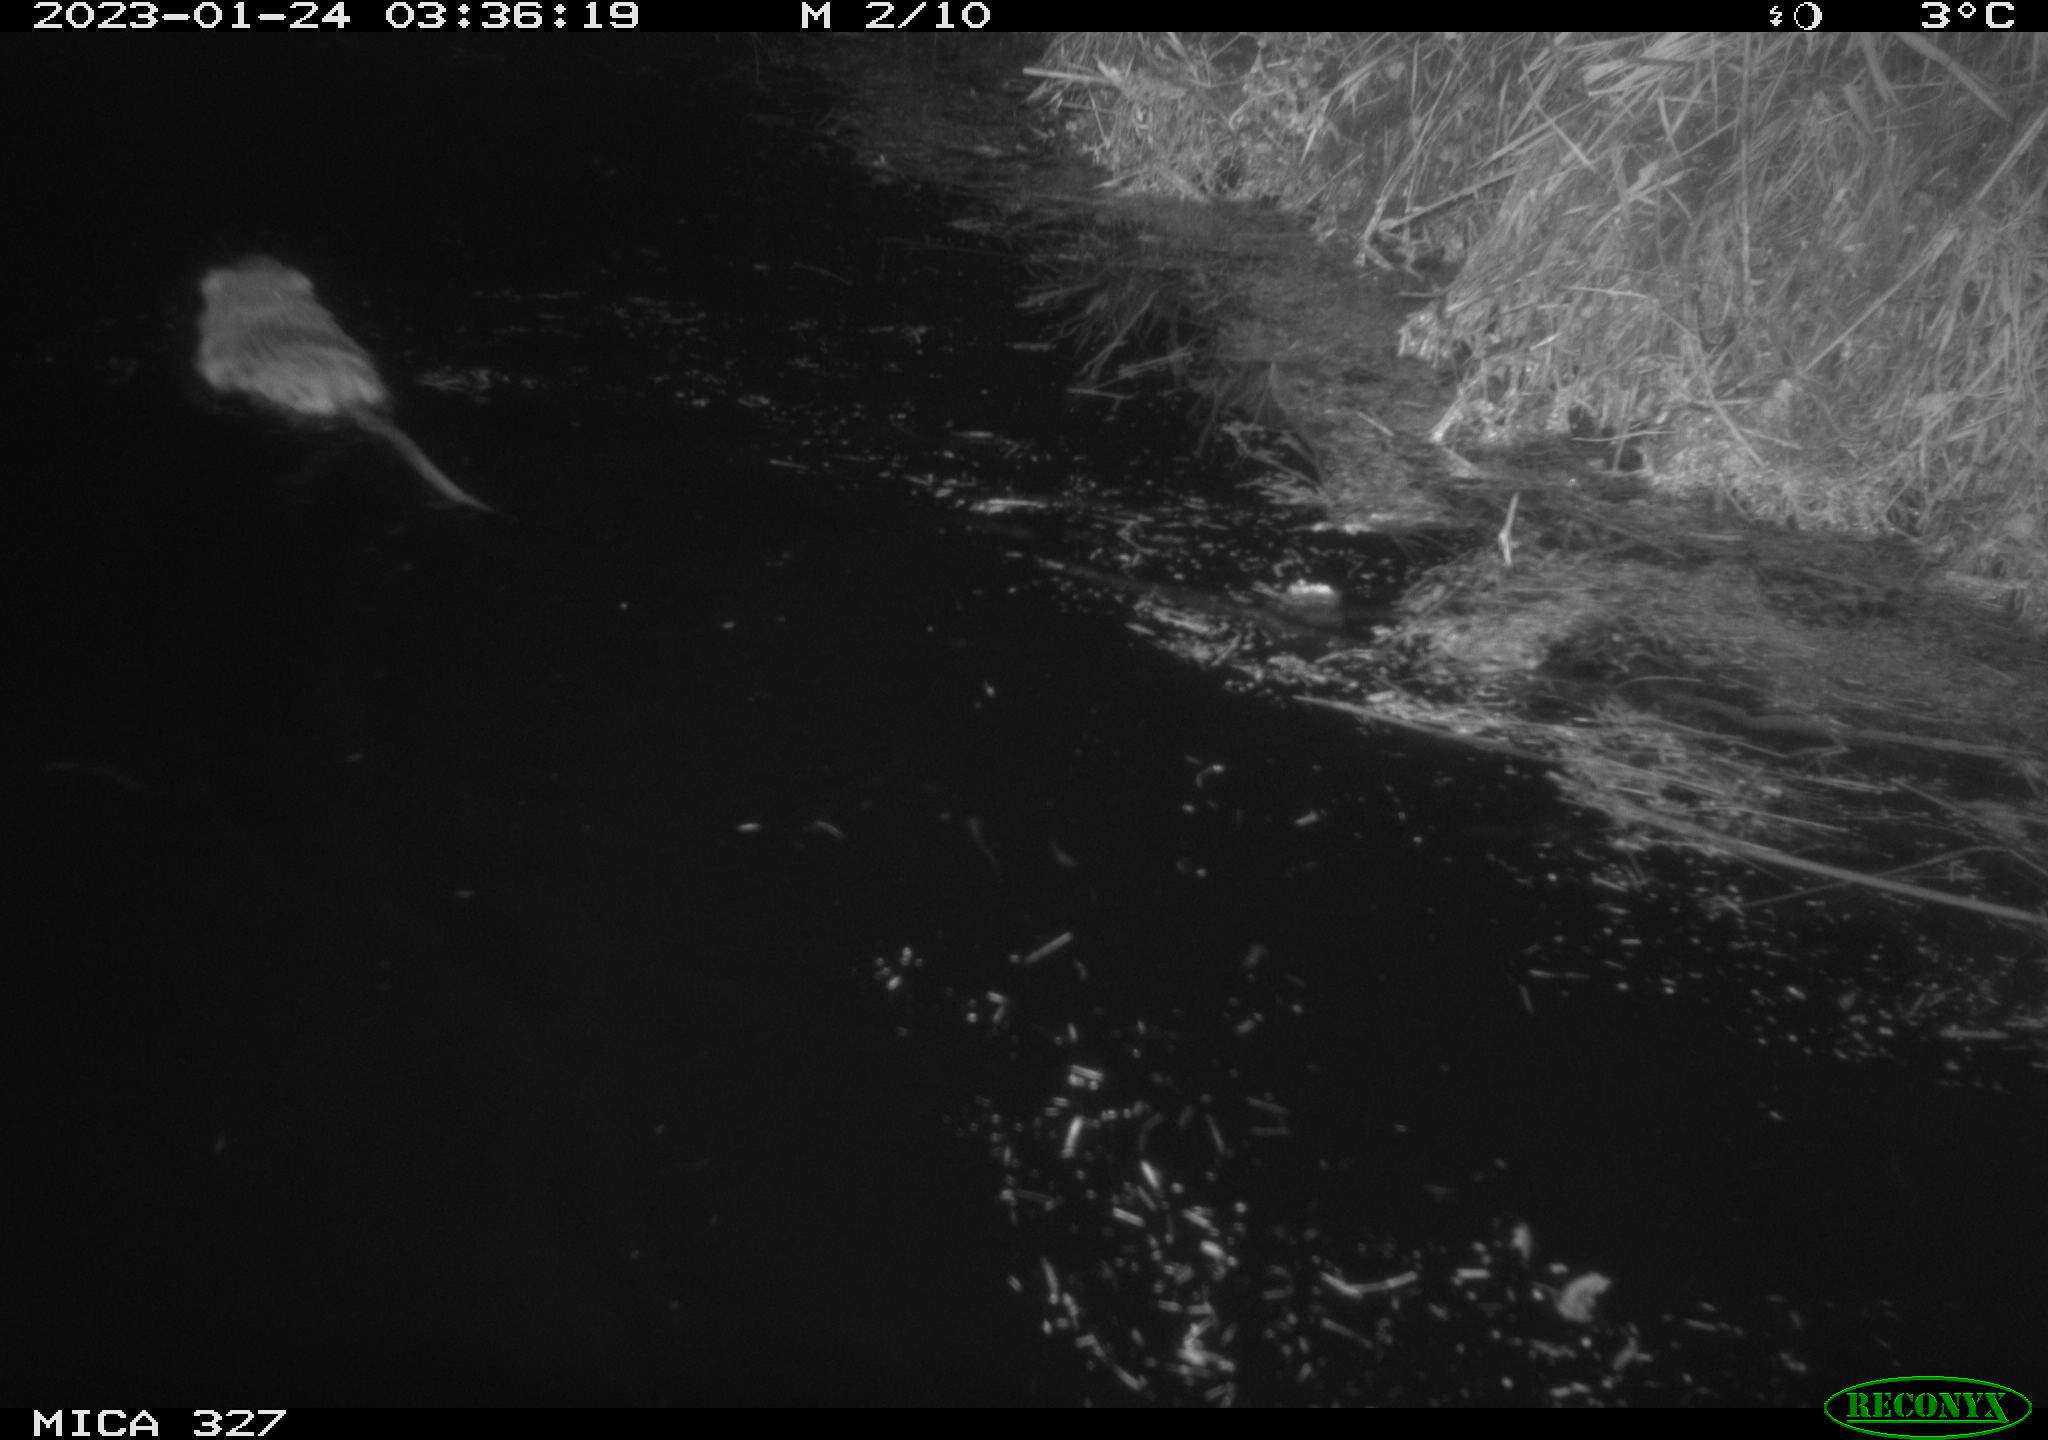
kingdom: Animalia
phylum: Chordata
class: Mammalia
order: Rodentia
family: Cricetidae
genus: Ondatra
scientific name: Ondatra zibethicus
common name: Muskrat
